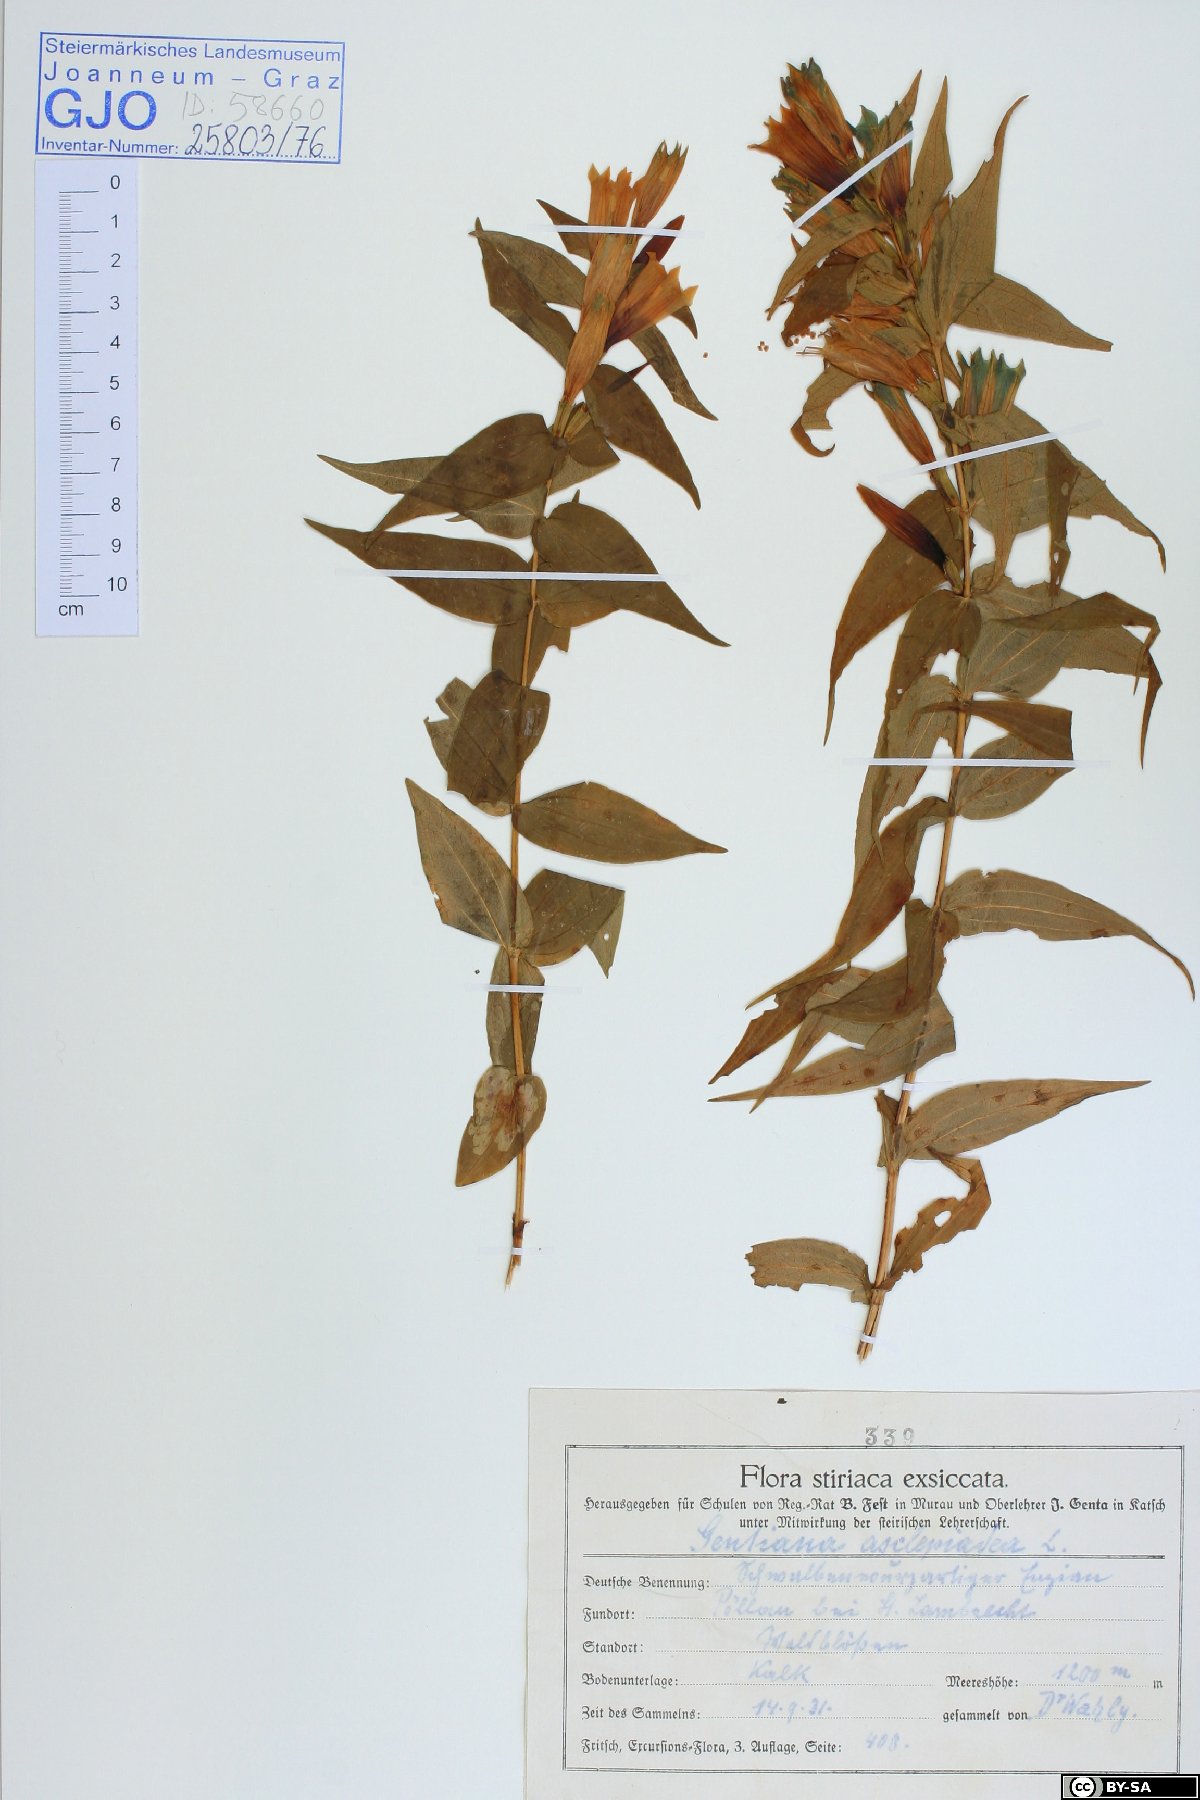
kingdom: Plantae
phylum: Tracheophyta
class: Magnoliopsida
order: Gentianales
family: Gentianaceae
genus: Gentiana
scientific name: Gentiana asclepiadea
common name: Willow gentian
